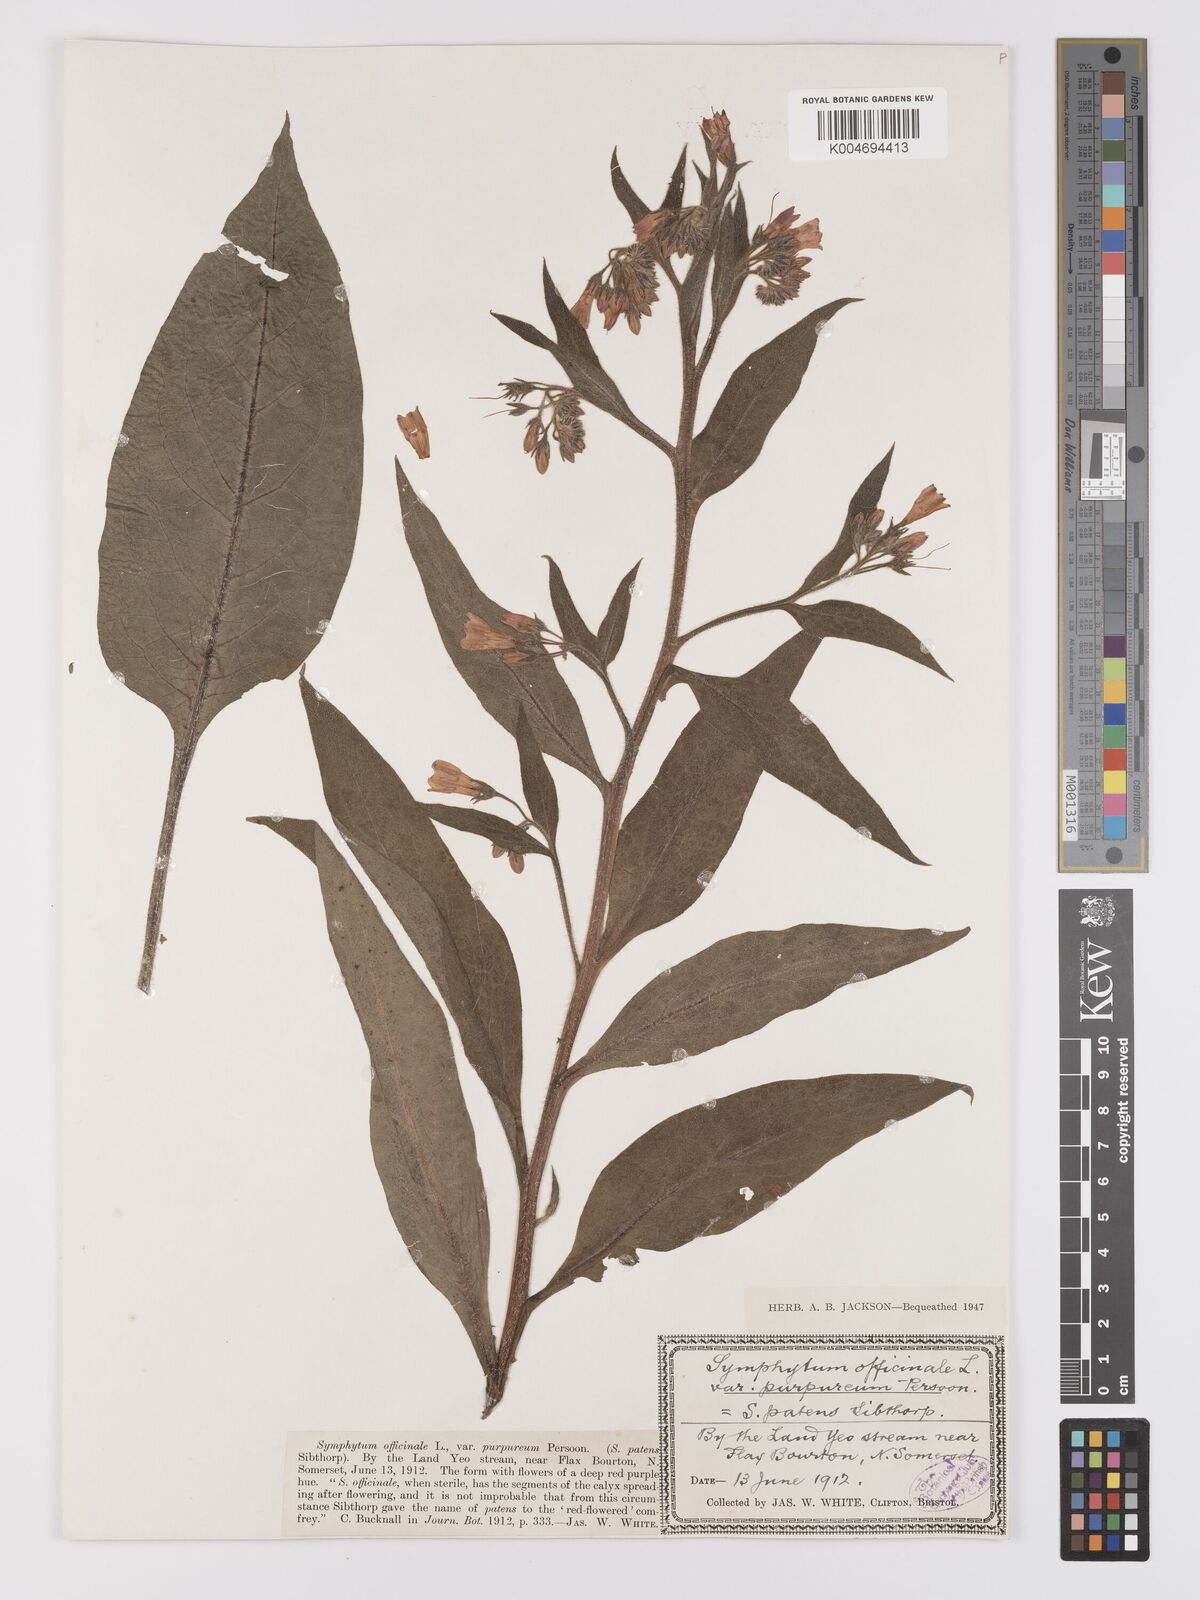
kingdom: Plantae
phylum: Tracheophyta
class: Magnoliopsida
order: Boraginales
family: Boraginaceae
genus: Symphytum
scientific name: Symphytum officinale
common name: Common comfrey
